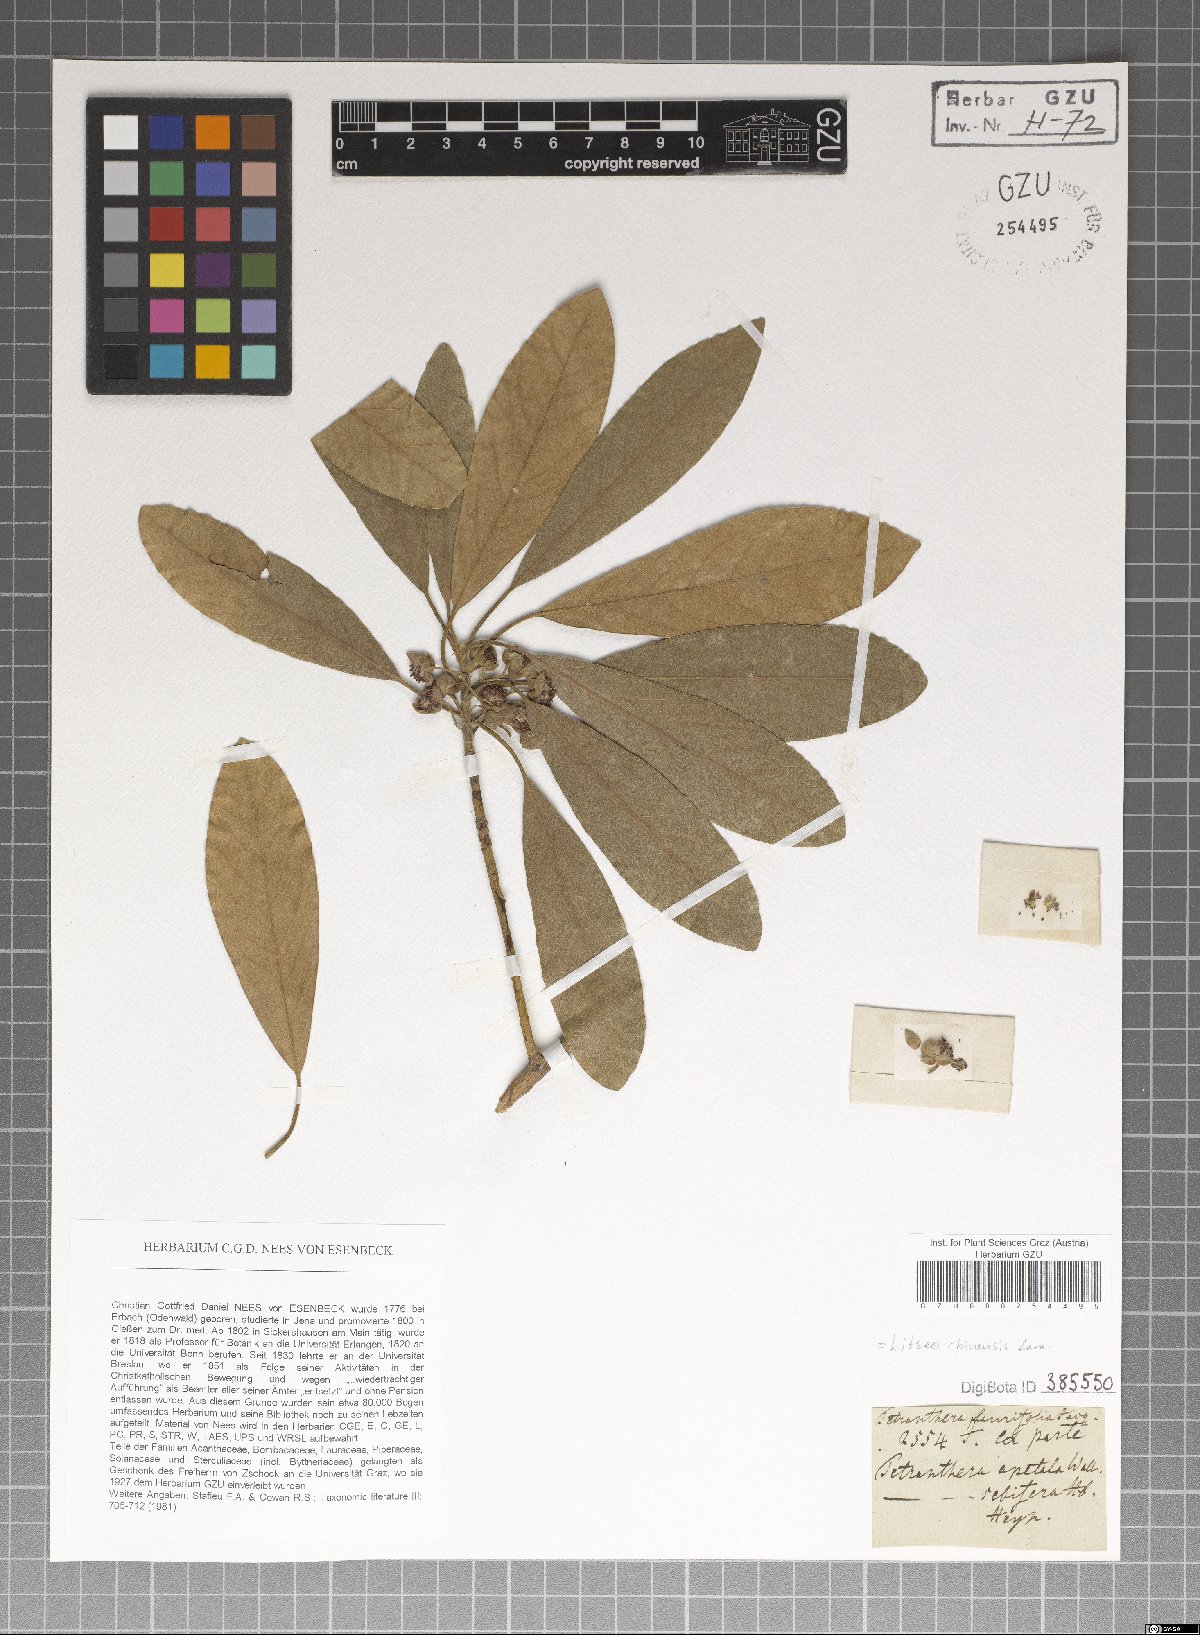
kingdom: Plantae
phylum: Tracheophyta
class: Magnoliopsida
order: Laurales
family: Lauraceae
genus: Litsea
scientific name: Litsea glutinosa
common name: Indian-laurel
